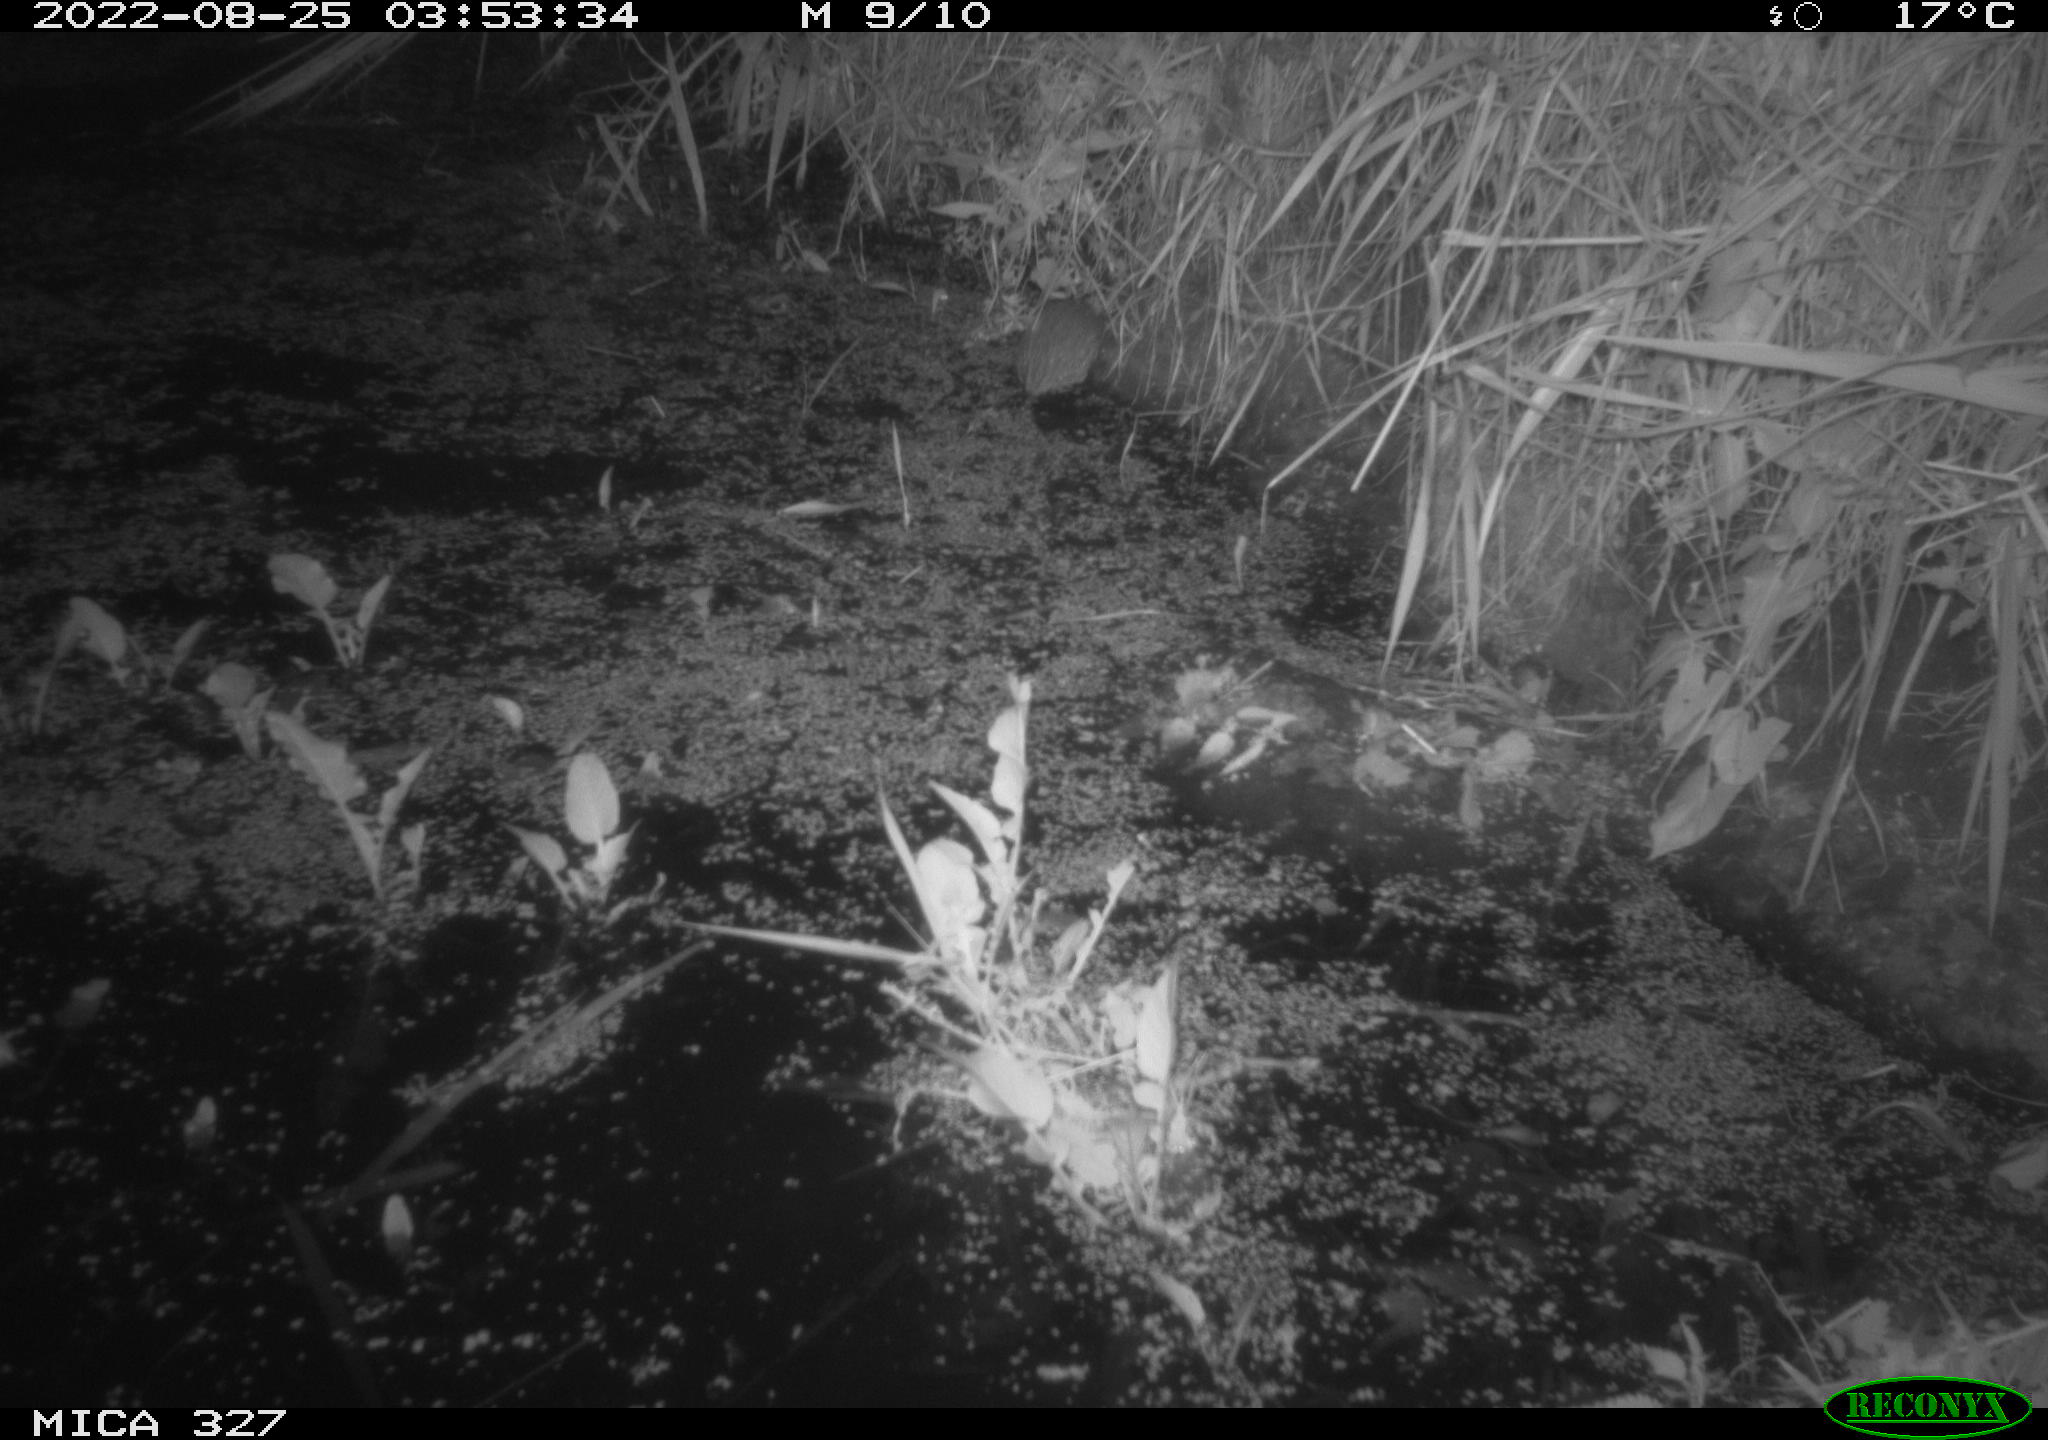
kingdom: Animalia
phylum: Chordata
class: Mammalia
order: Rodentia
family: Muridae
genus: Rattus
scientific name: Rattus norvegicus
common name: Brown rat
